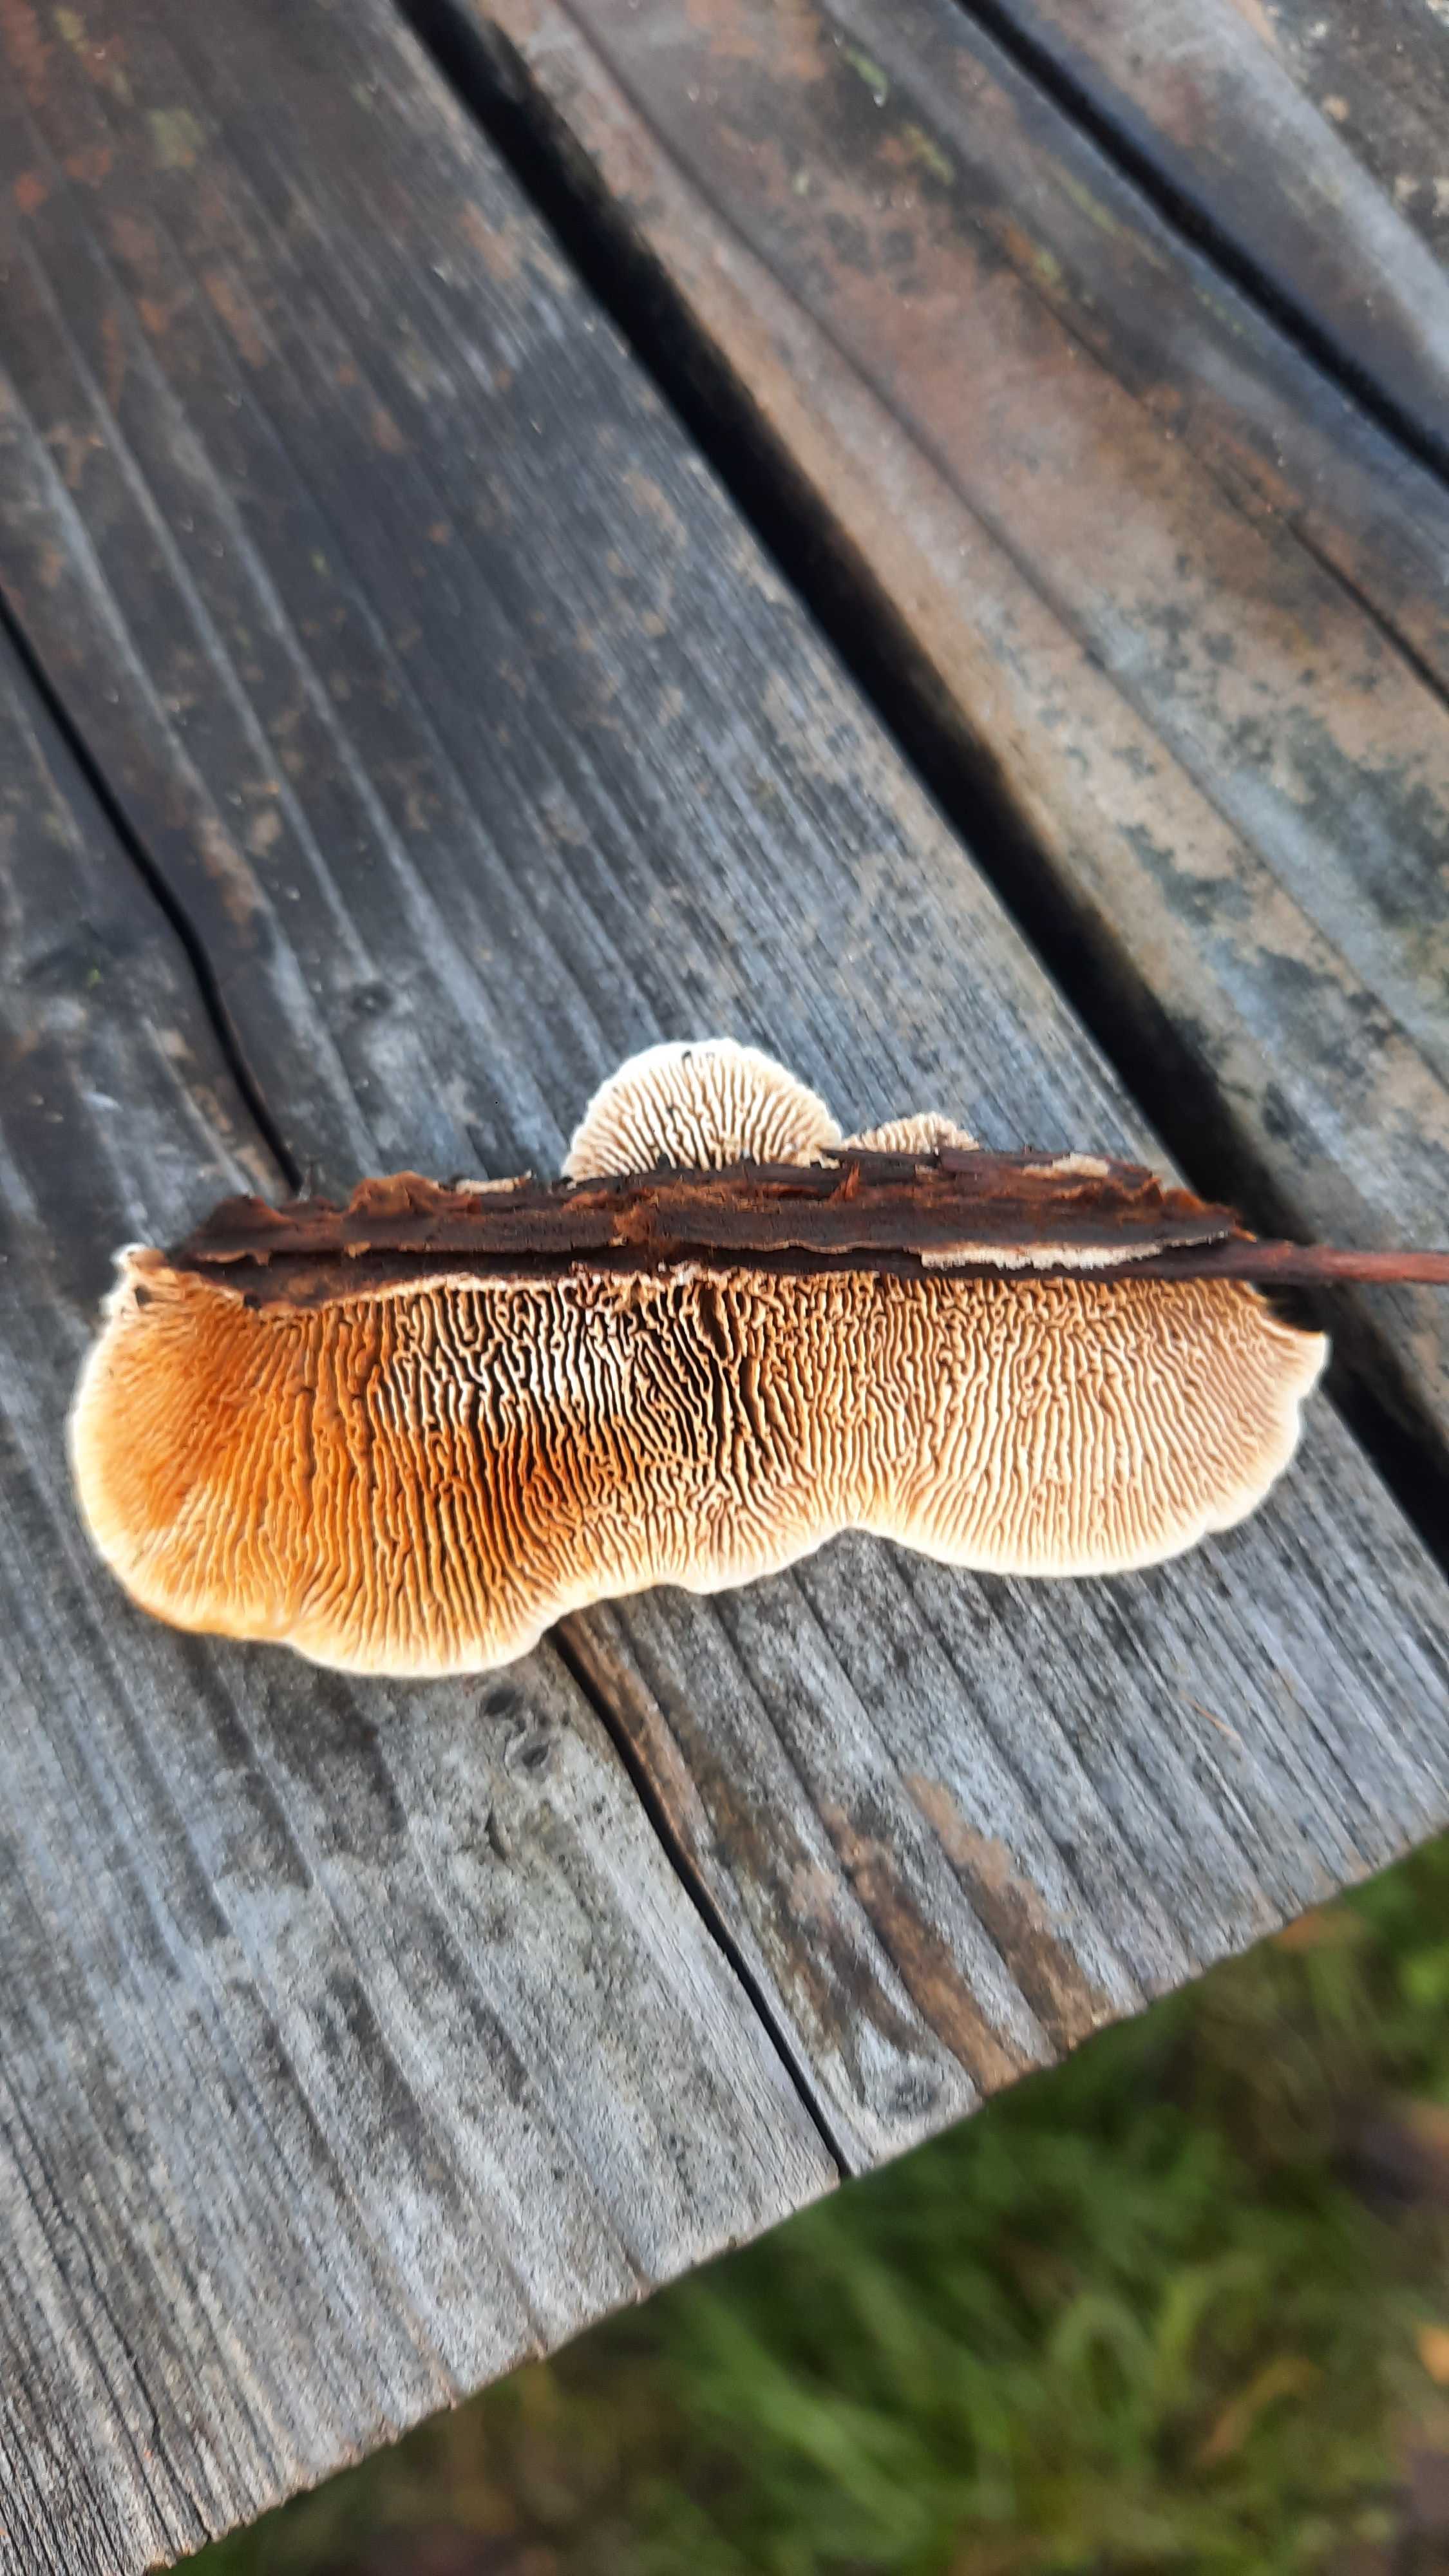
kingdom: Fungi
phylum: Basidiomycota
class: Agaricomycetes
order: Gloeophyllales
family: Gloeophyllaceae
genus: Gloeophyllum
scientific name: Gloeophyllum sepiarium
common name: fyrre-korkhat
